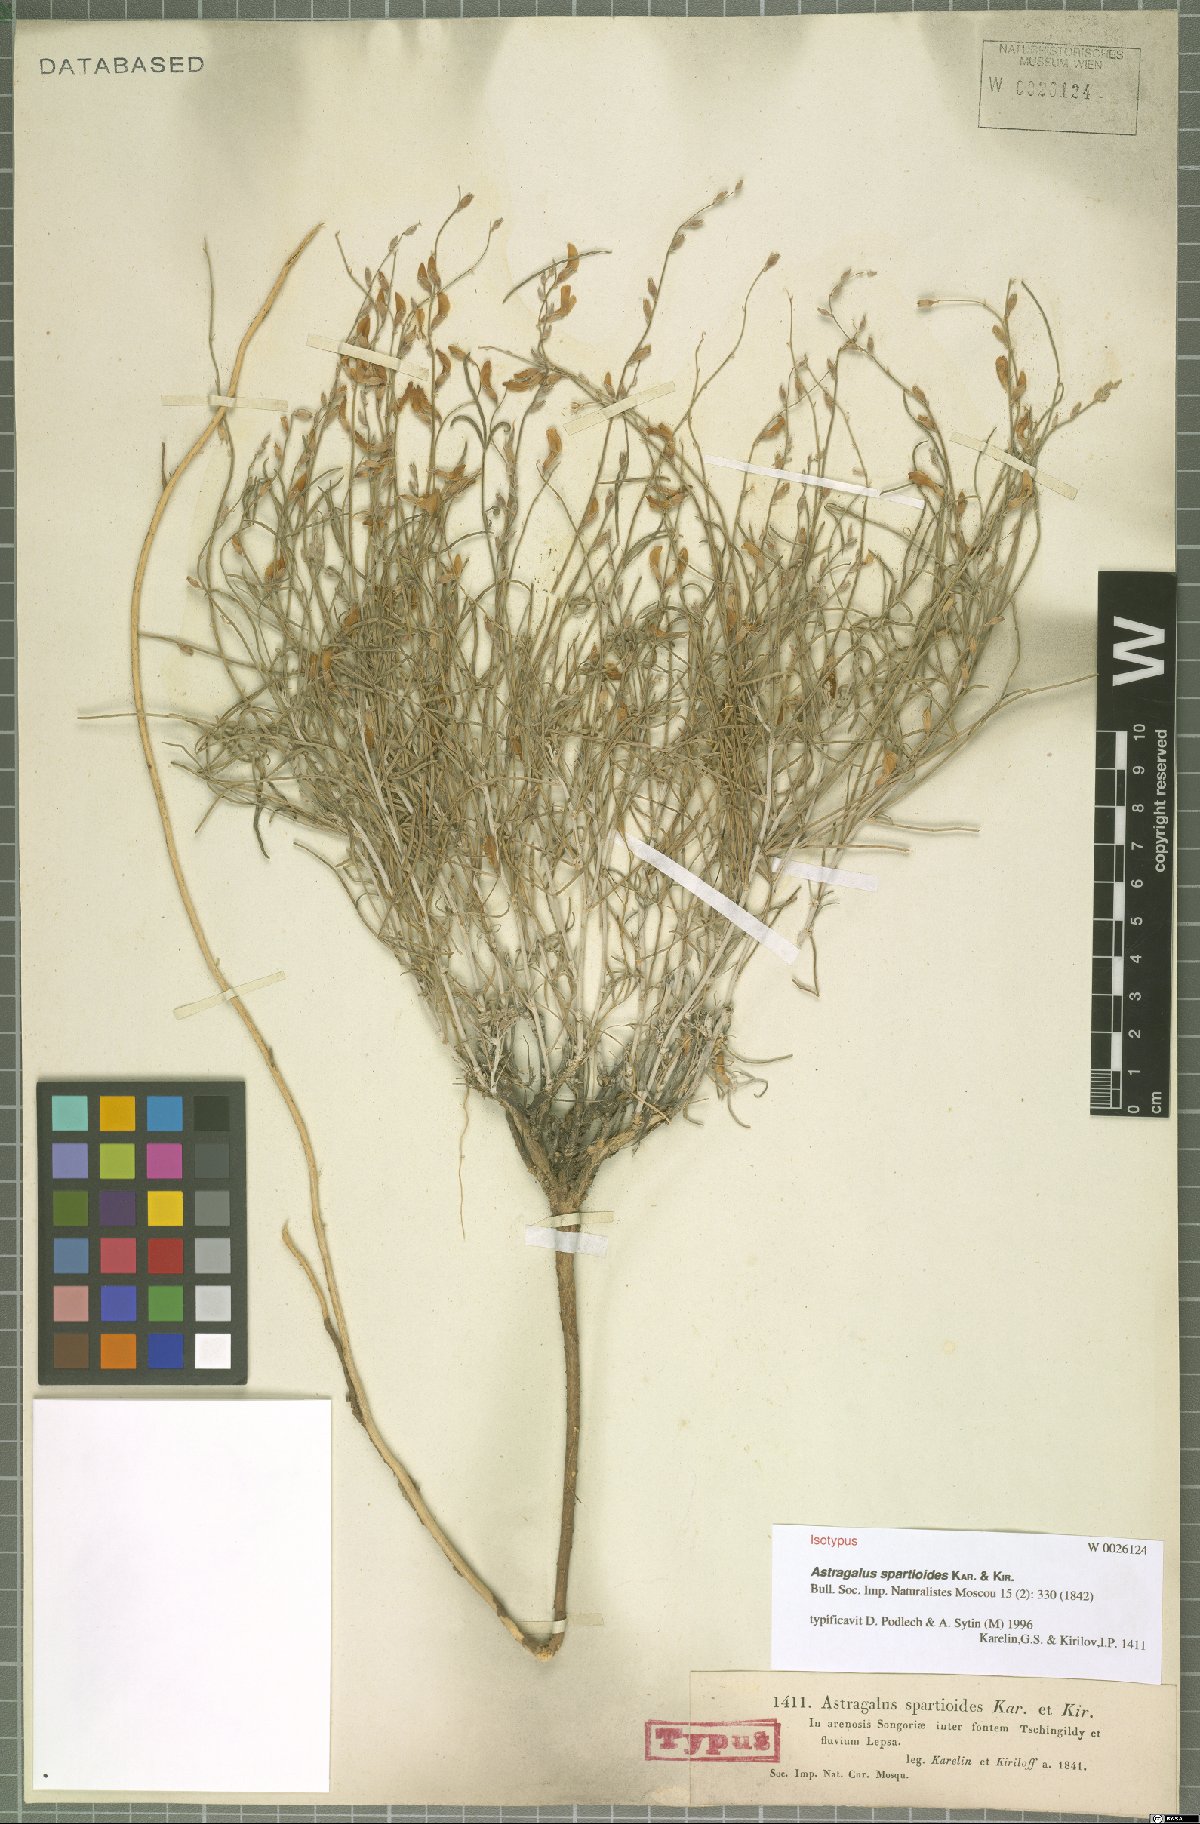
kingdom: Plantae
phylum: Tracheophyta
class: Magnoliopsida
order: Fabales
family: Fabaceae
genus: Astragalus
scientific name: Astragalus spartioides
